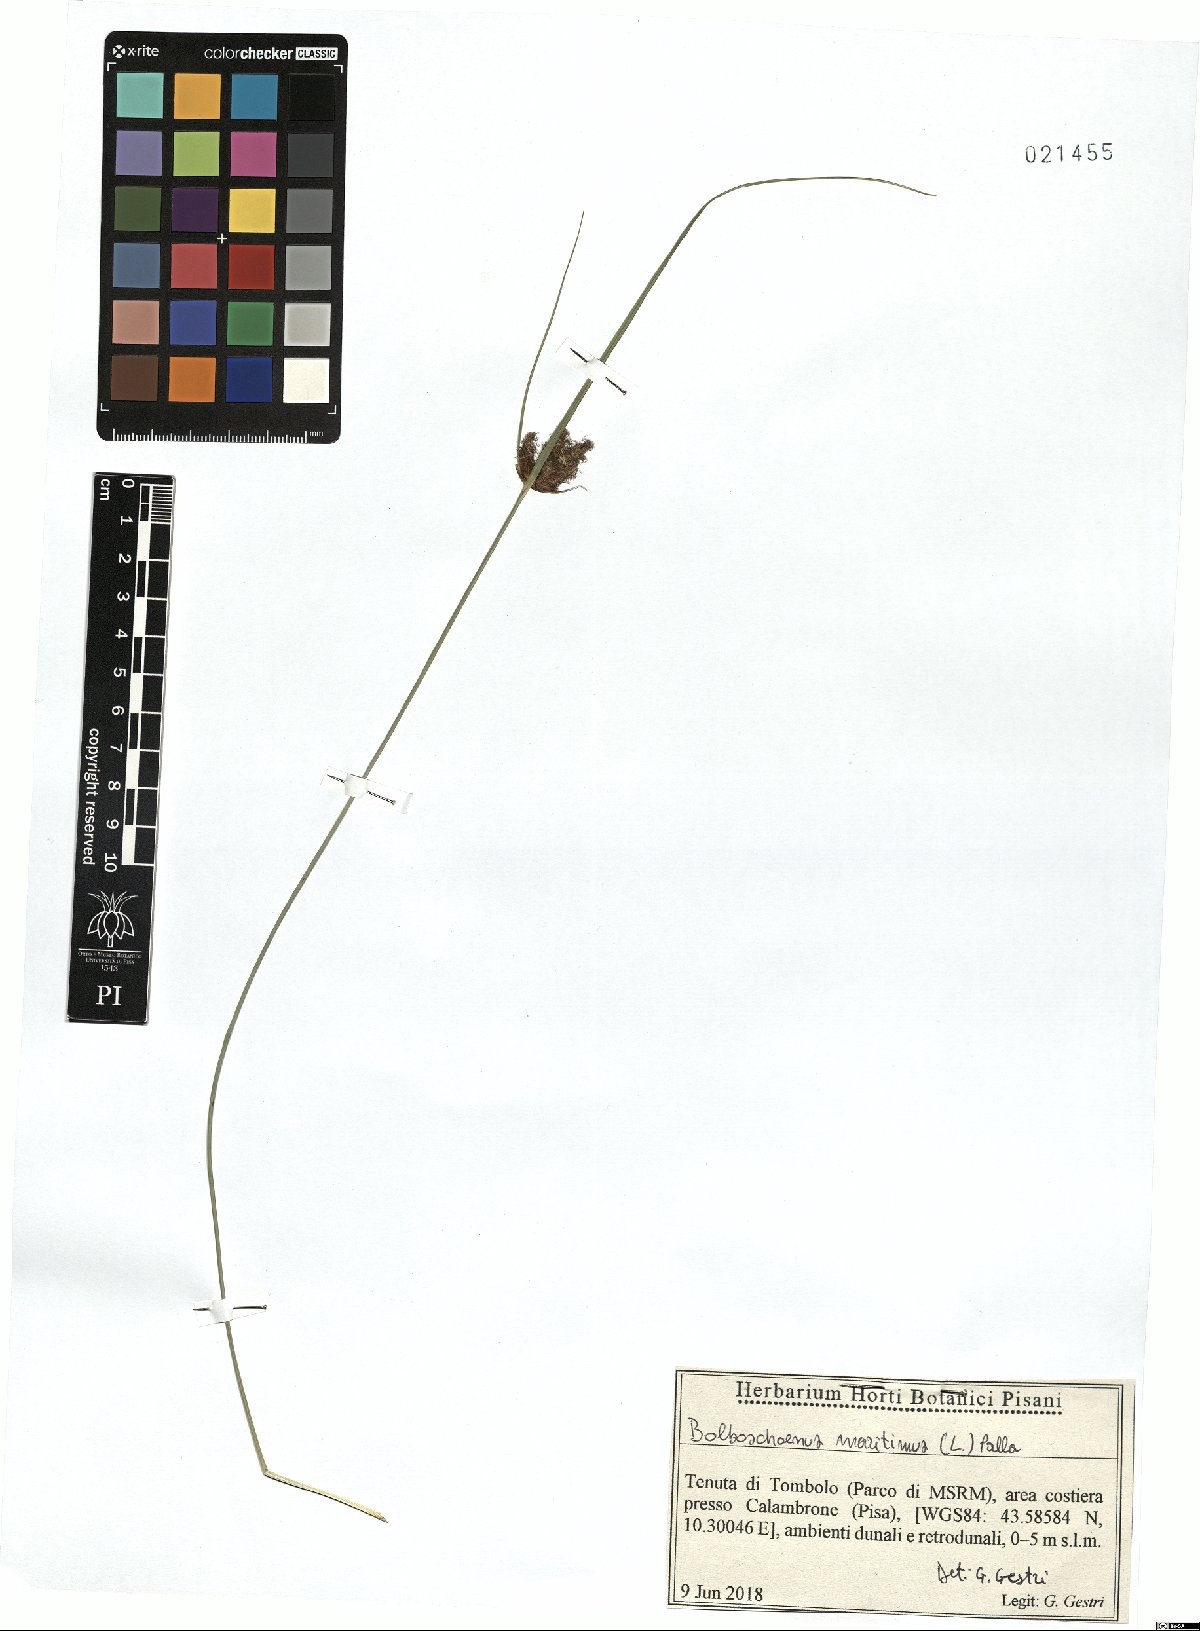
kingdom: Plantae
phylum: Tracheophyta
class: Liliopsida
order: Poales
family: Cyperaceae
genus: Bolboschoenus
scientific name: Bolboschoenus maritimus
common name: Sea club-rush
